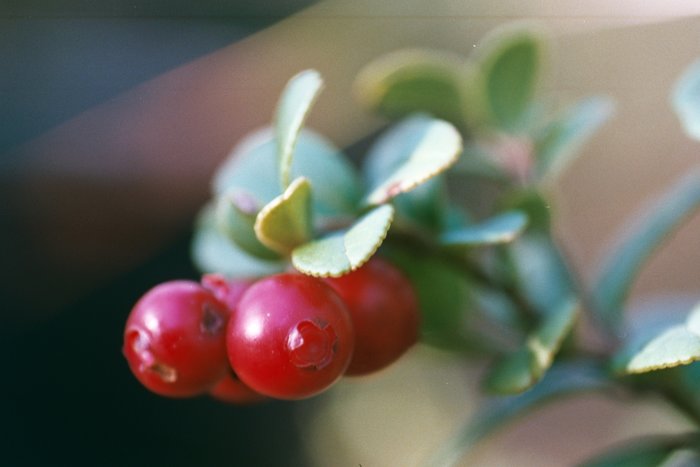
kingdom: Plantae
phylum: Tracheophyta
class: Magnoliopsida
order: Ericales
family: Ericaceae
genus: Vaccinium
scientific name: Vaccinium vitis-idaea
